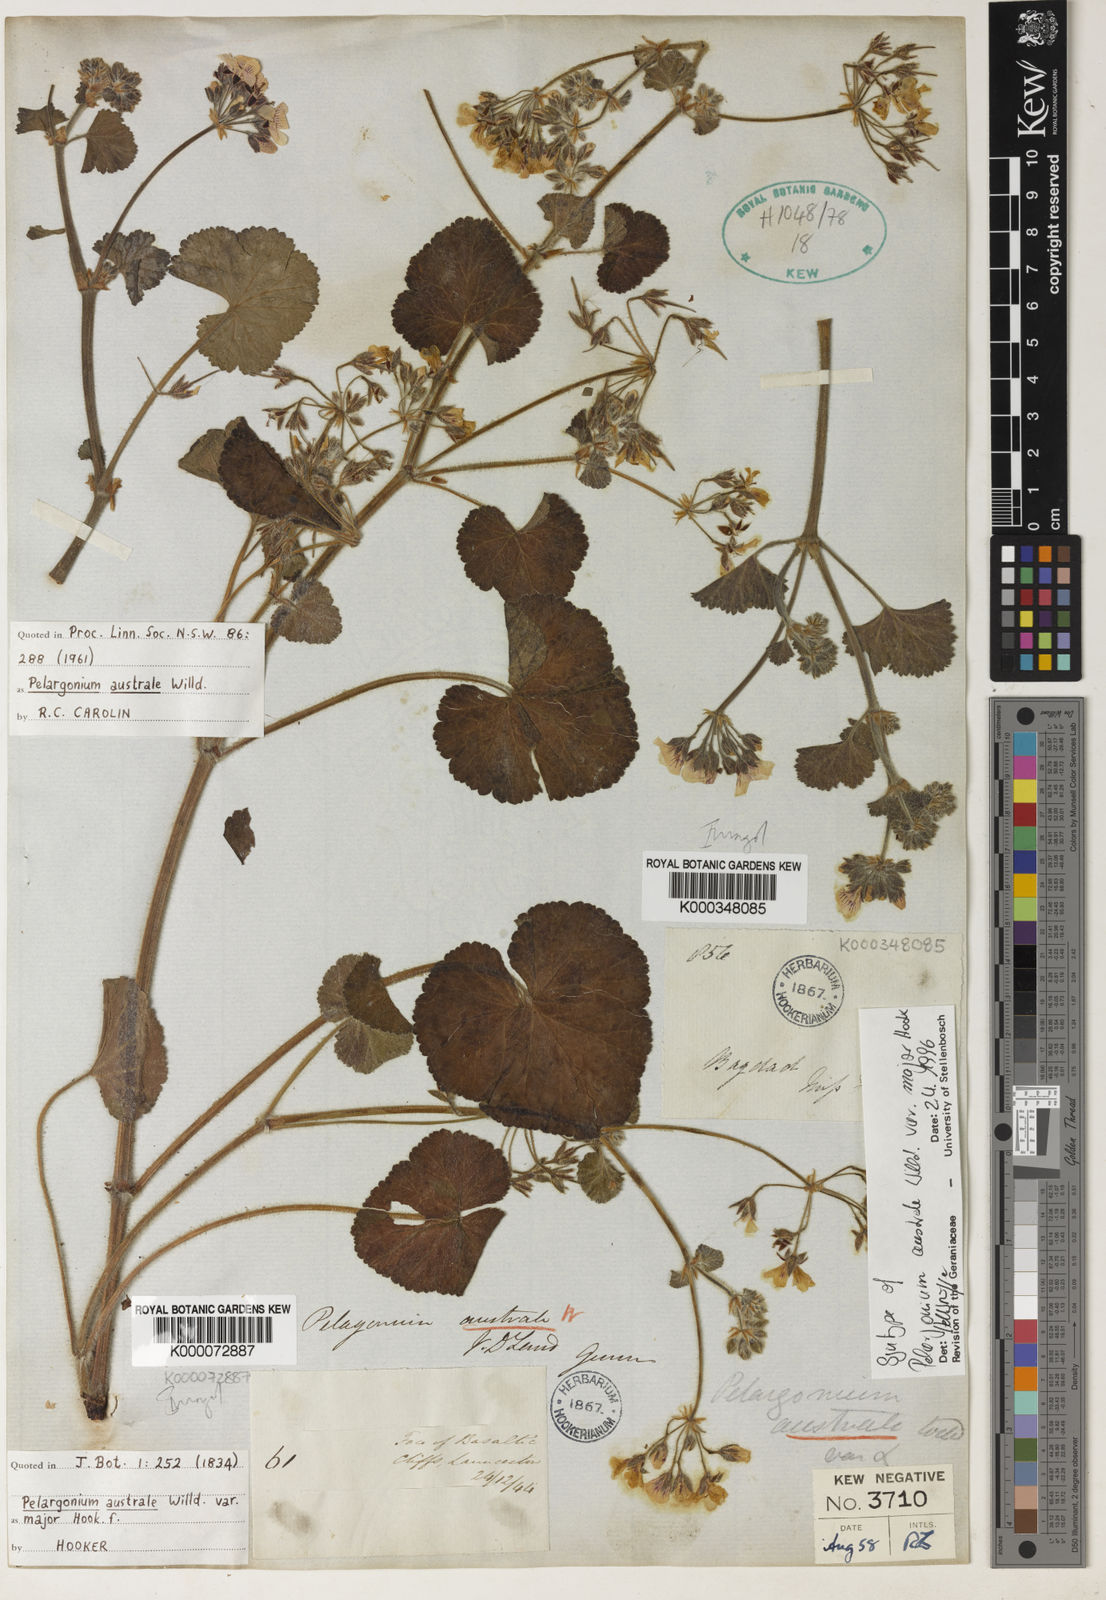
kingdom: Plantae
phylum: Tracheophyta
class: Magnoliopsida
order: Geraniales
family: Geraniaceae
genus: Pelargonium
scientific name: Pelargonium australe
